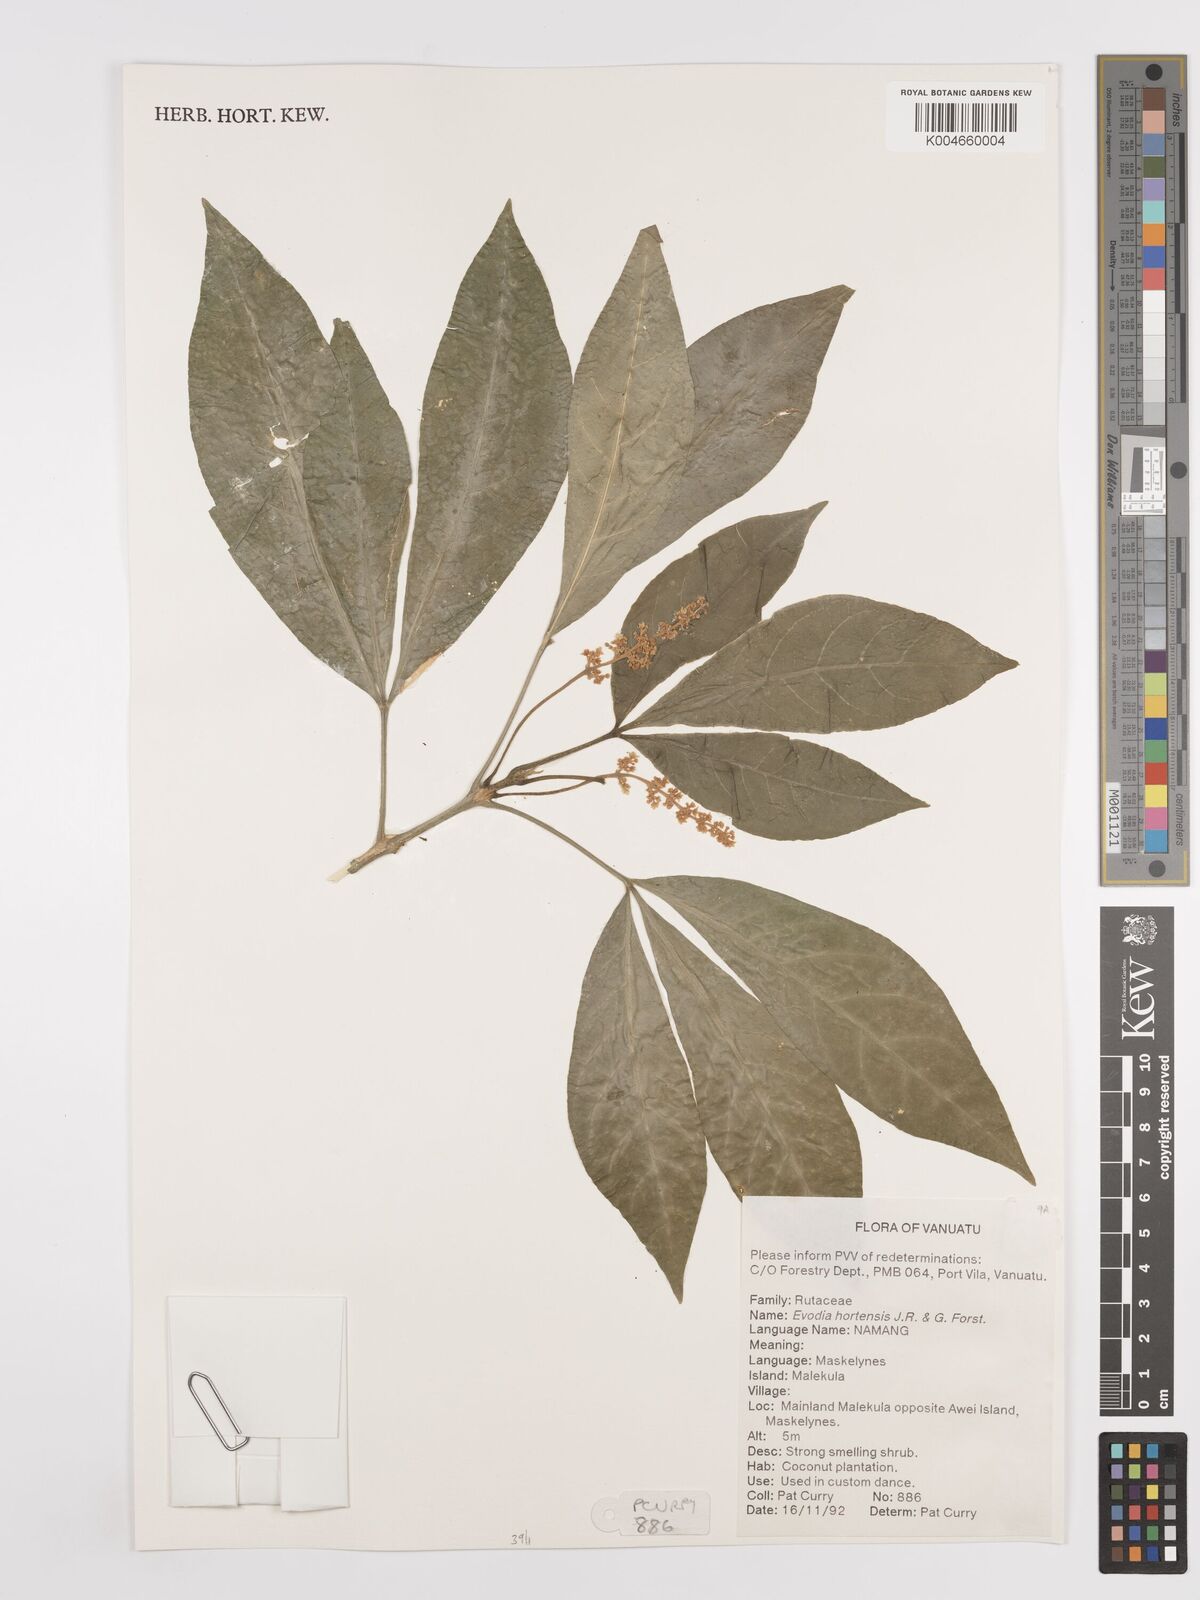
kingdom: Plantae
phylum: Tracheophyta
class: Magnoliopsida
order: Sapindales
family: Rutaceae
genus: Euodia
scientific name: Euodia hortensis
